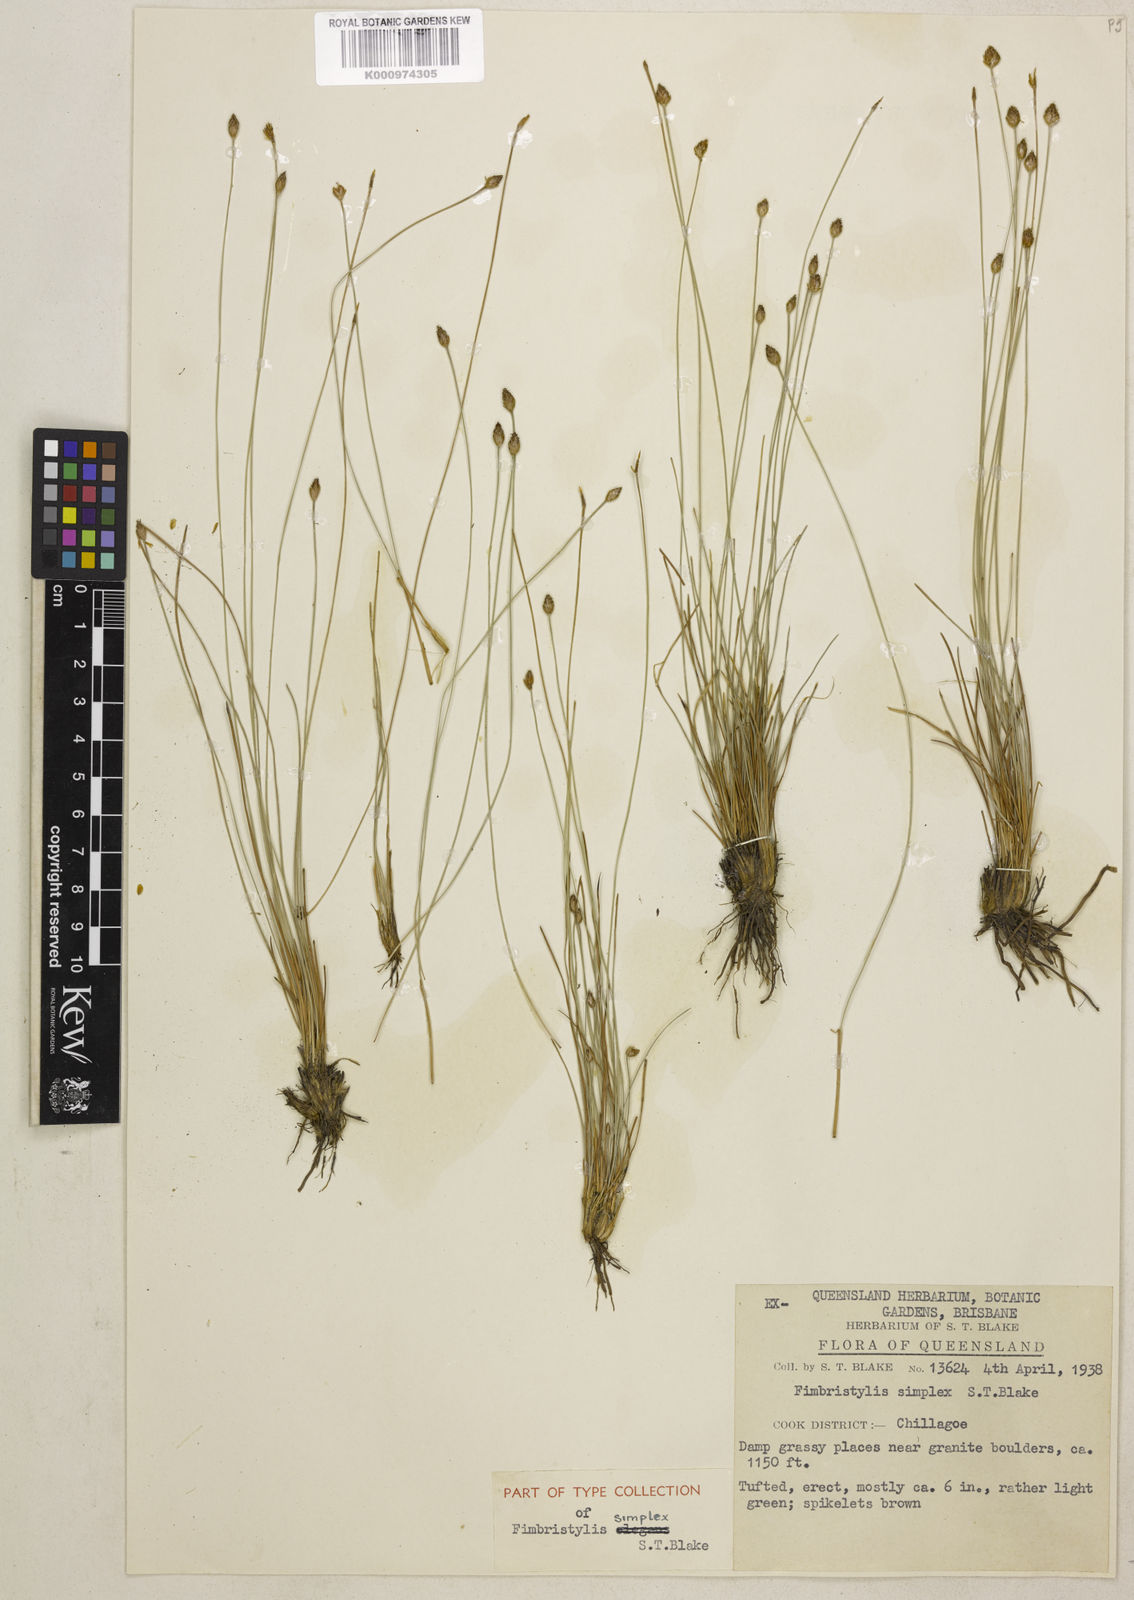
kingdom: Plantae
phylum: Tracheophyta
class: Liliopsida
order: Poales
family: Cyperaceae
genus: Fimbristylis
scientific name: Fimbristylis simplex
